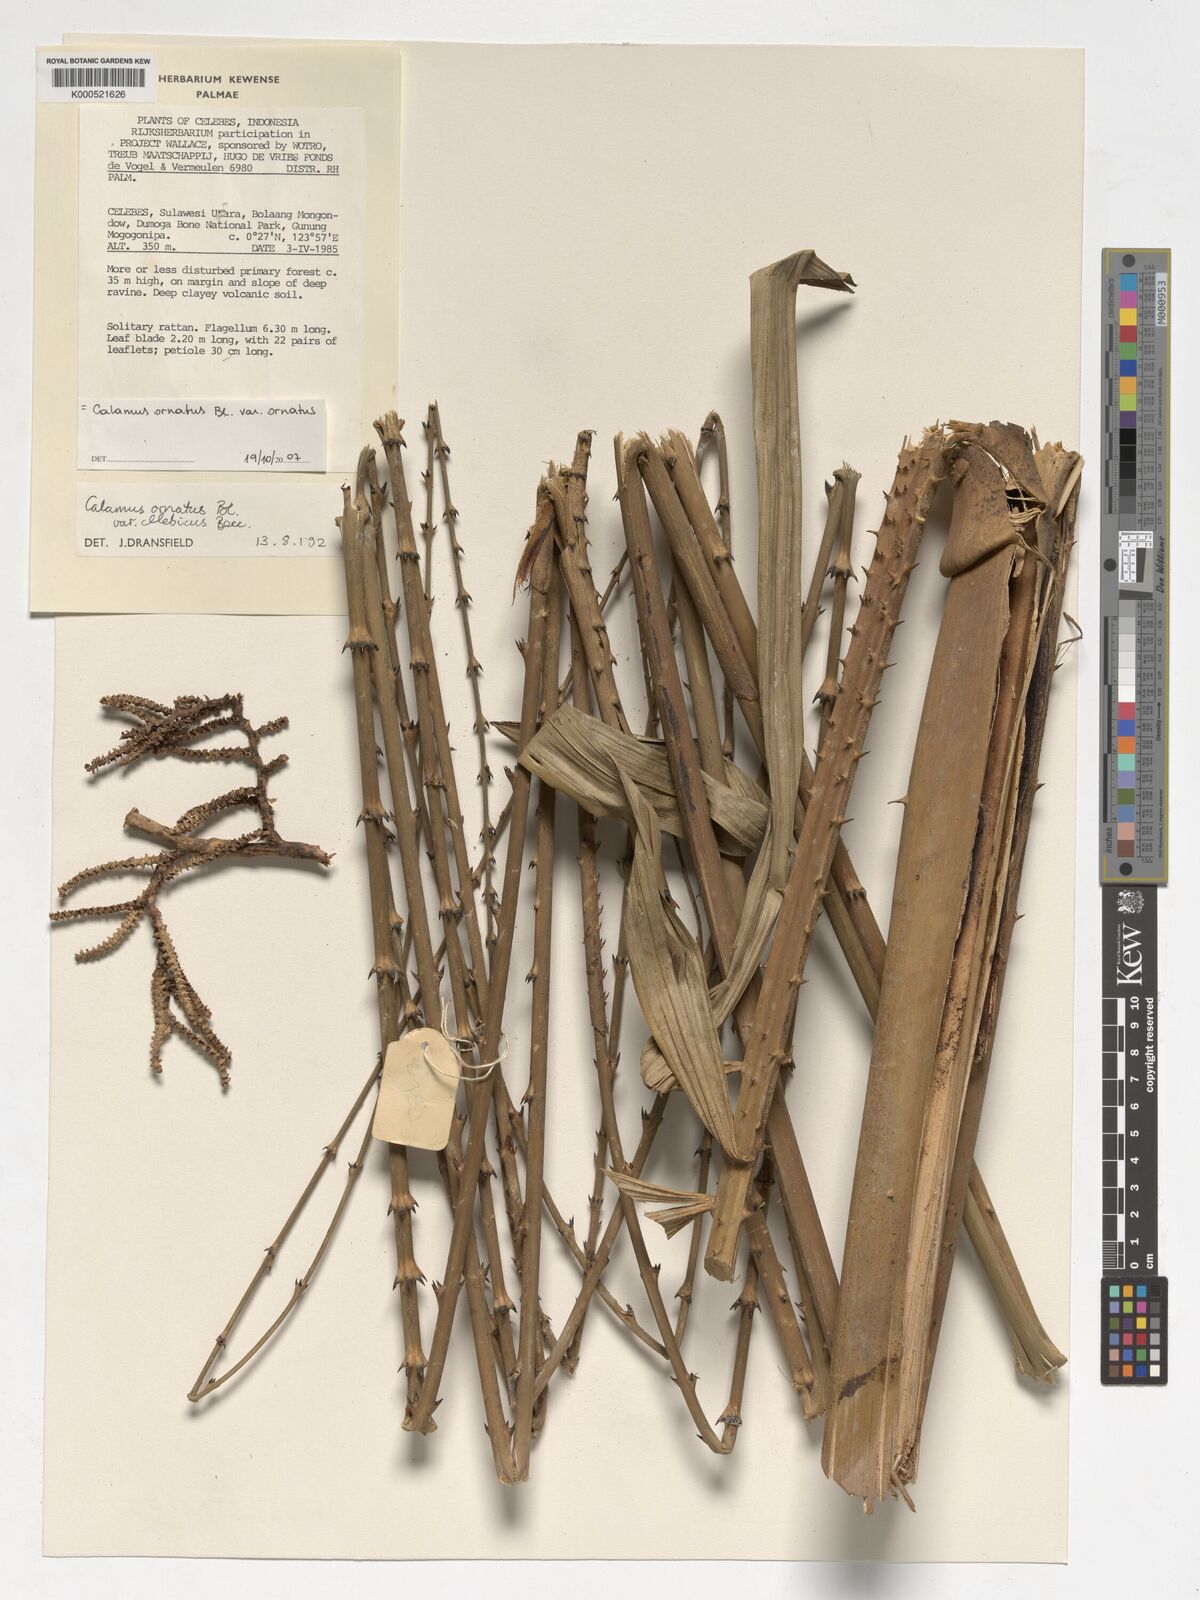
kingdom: Plantae
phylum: Tracheophyta
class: Liliopsida
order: Arecales
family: Arecaceae
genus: Calamus
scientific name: Calamus ornatus
